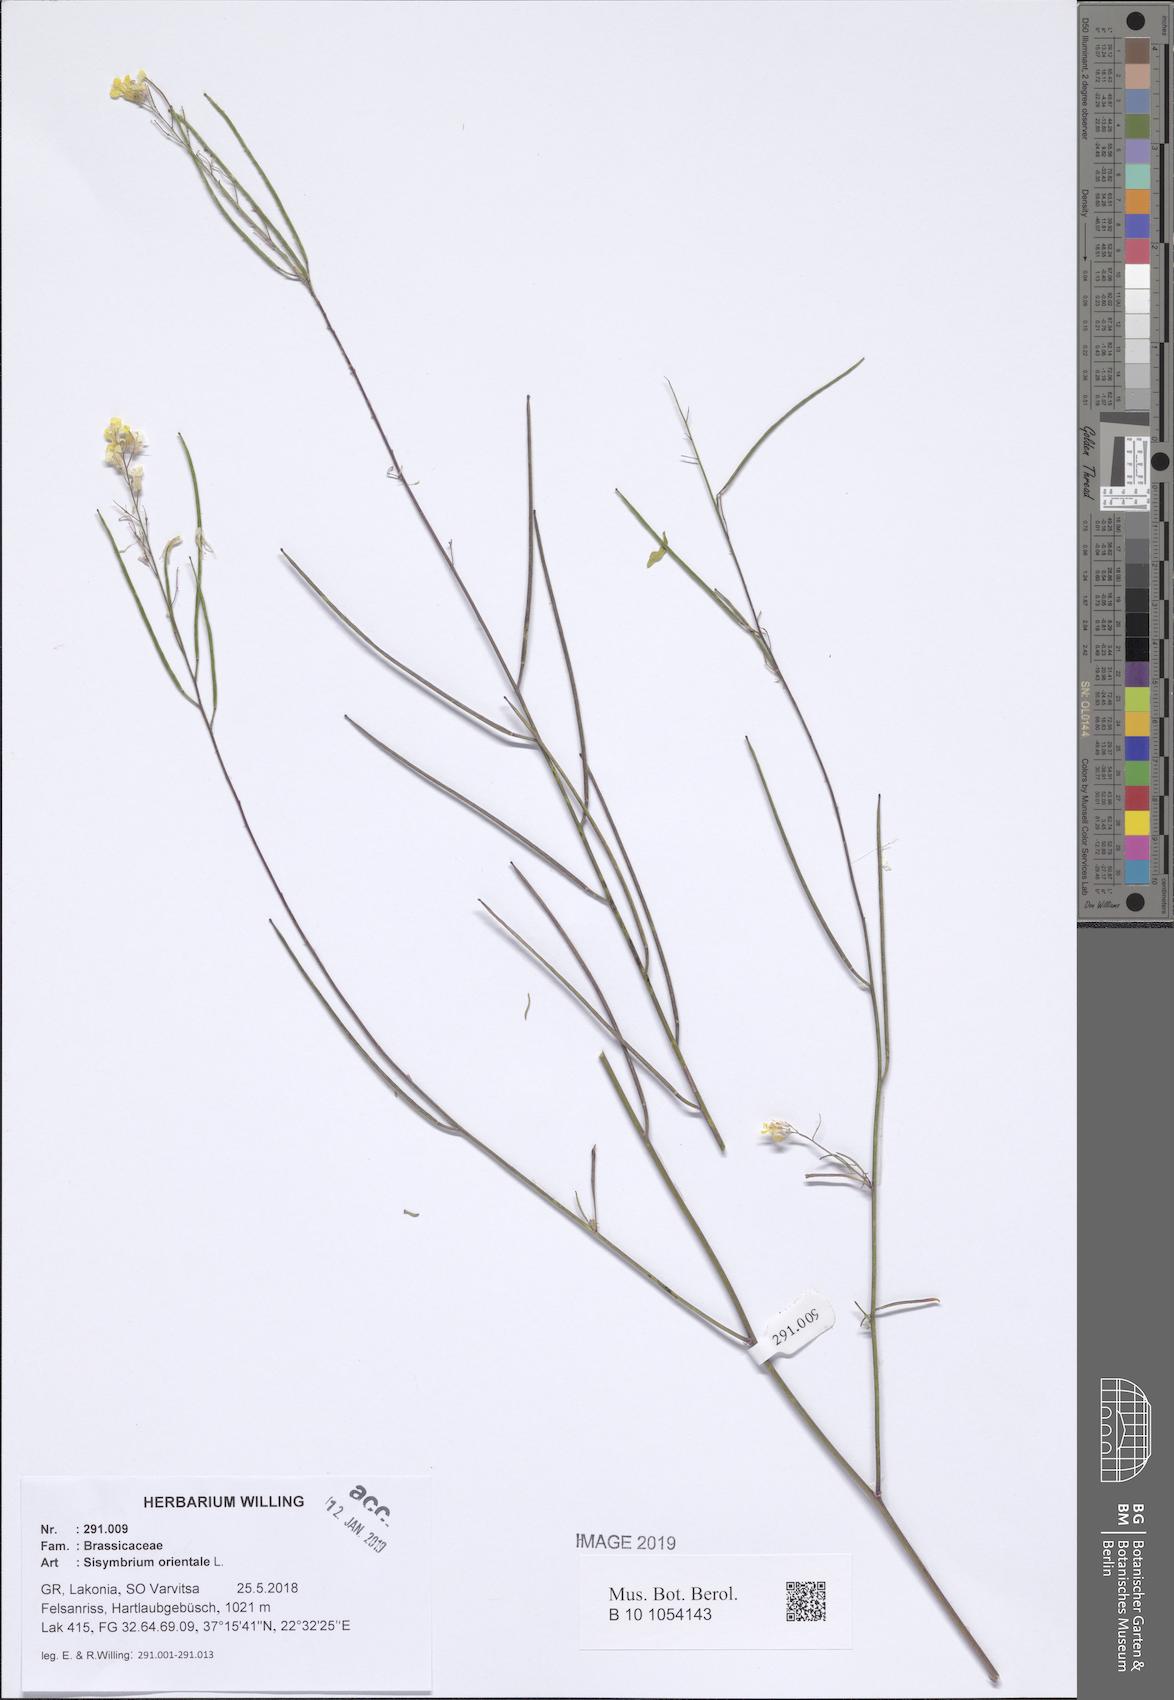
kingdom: Plantae
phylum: Tracheophyta
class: Magnoliopsida
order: Brassicales
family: Brassicaceae
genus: Sisymbrium
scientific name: Sisymbrium orientale
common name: Eastern rocket
